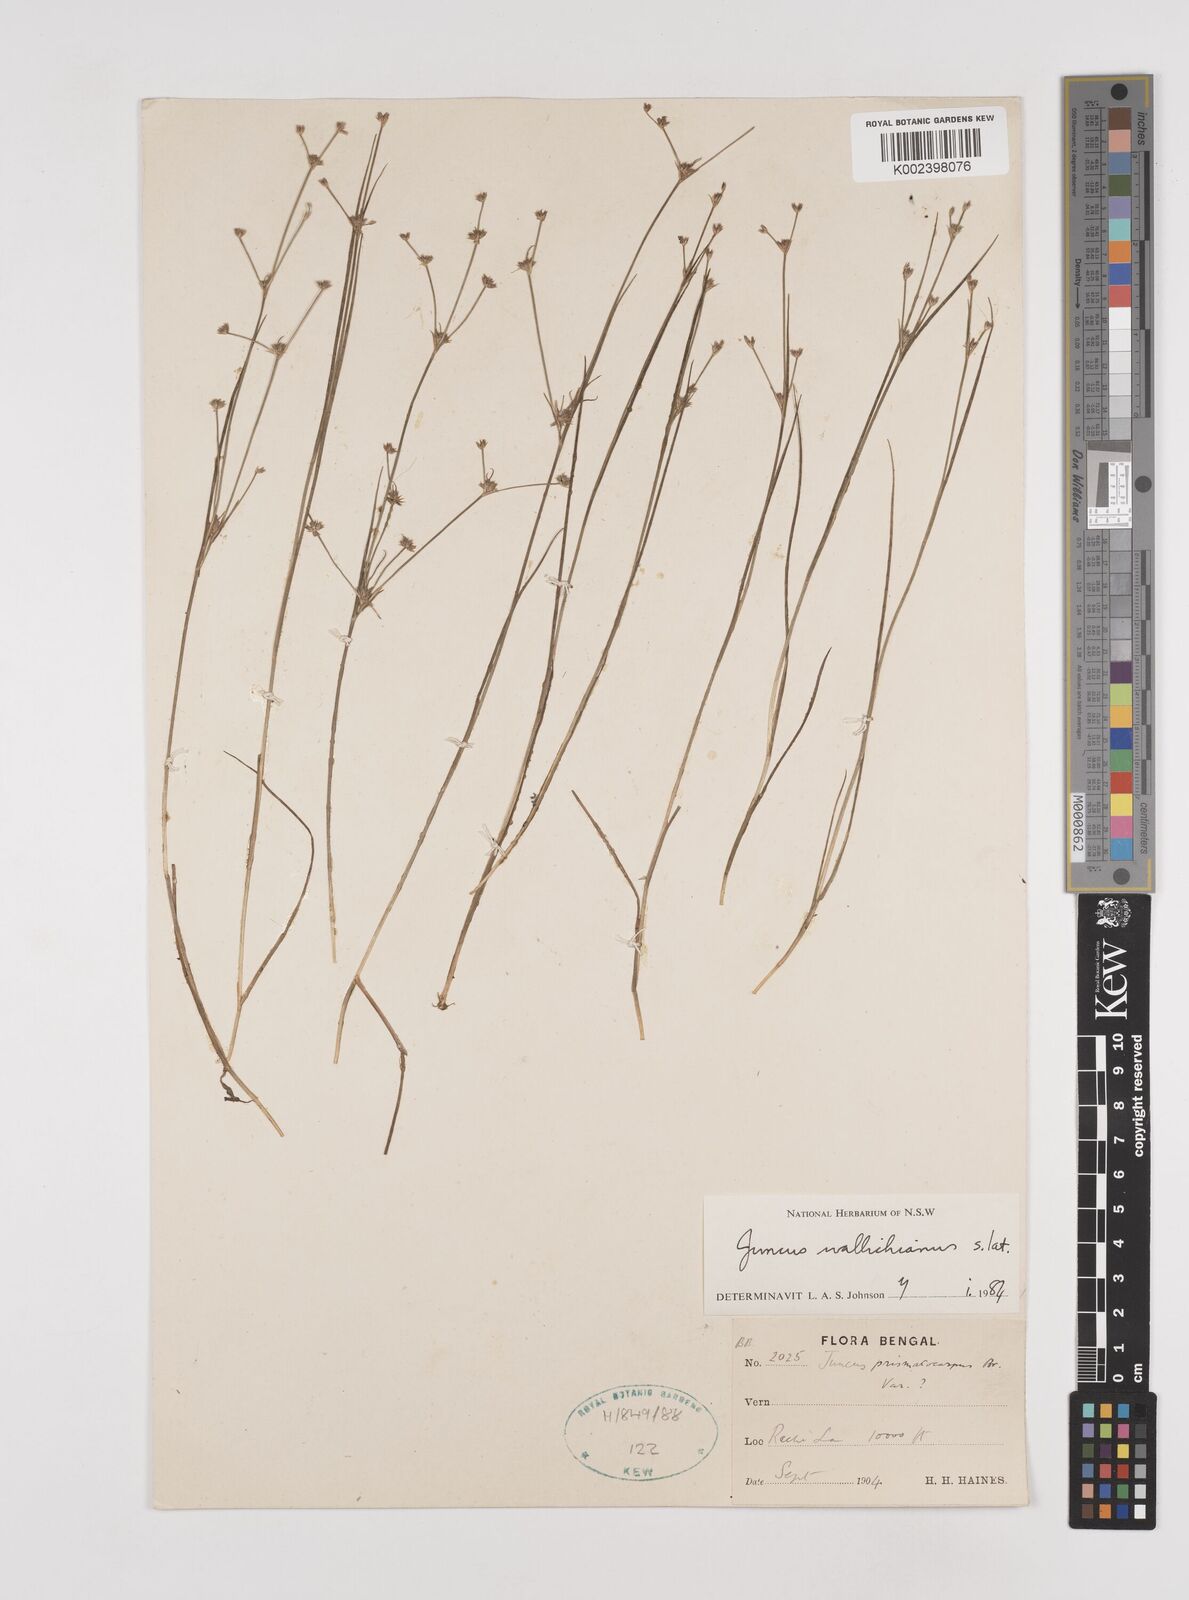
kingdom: Plantae
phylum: Tracheophyta
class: Liliopsida
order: Poales
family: Juncaceae
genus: Juncus
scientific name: Juncus wallichianus
